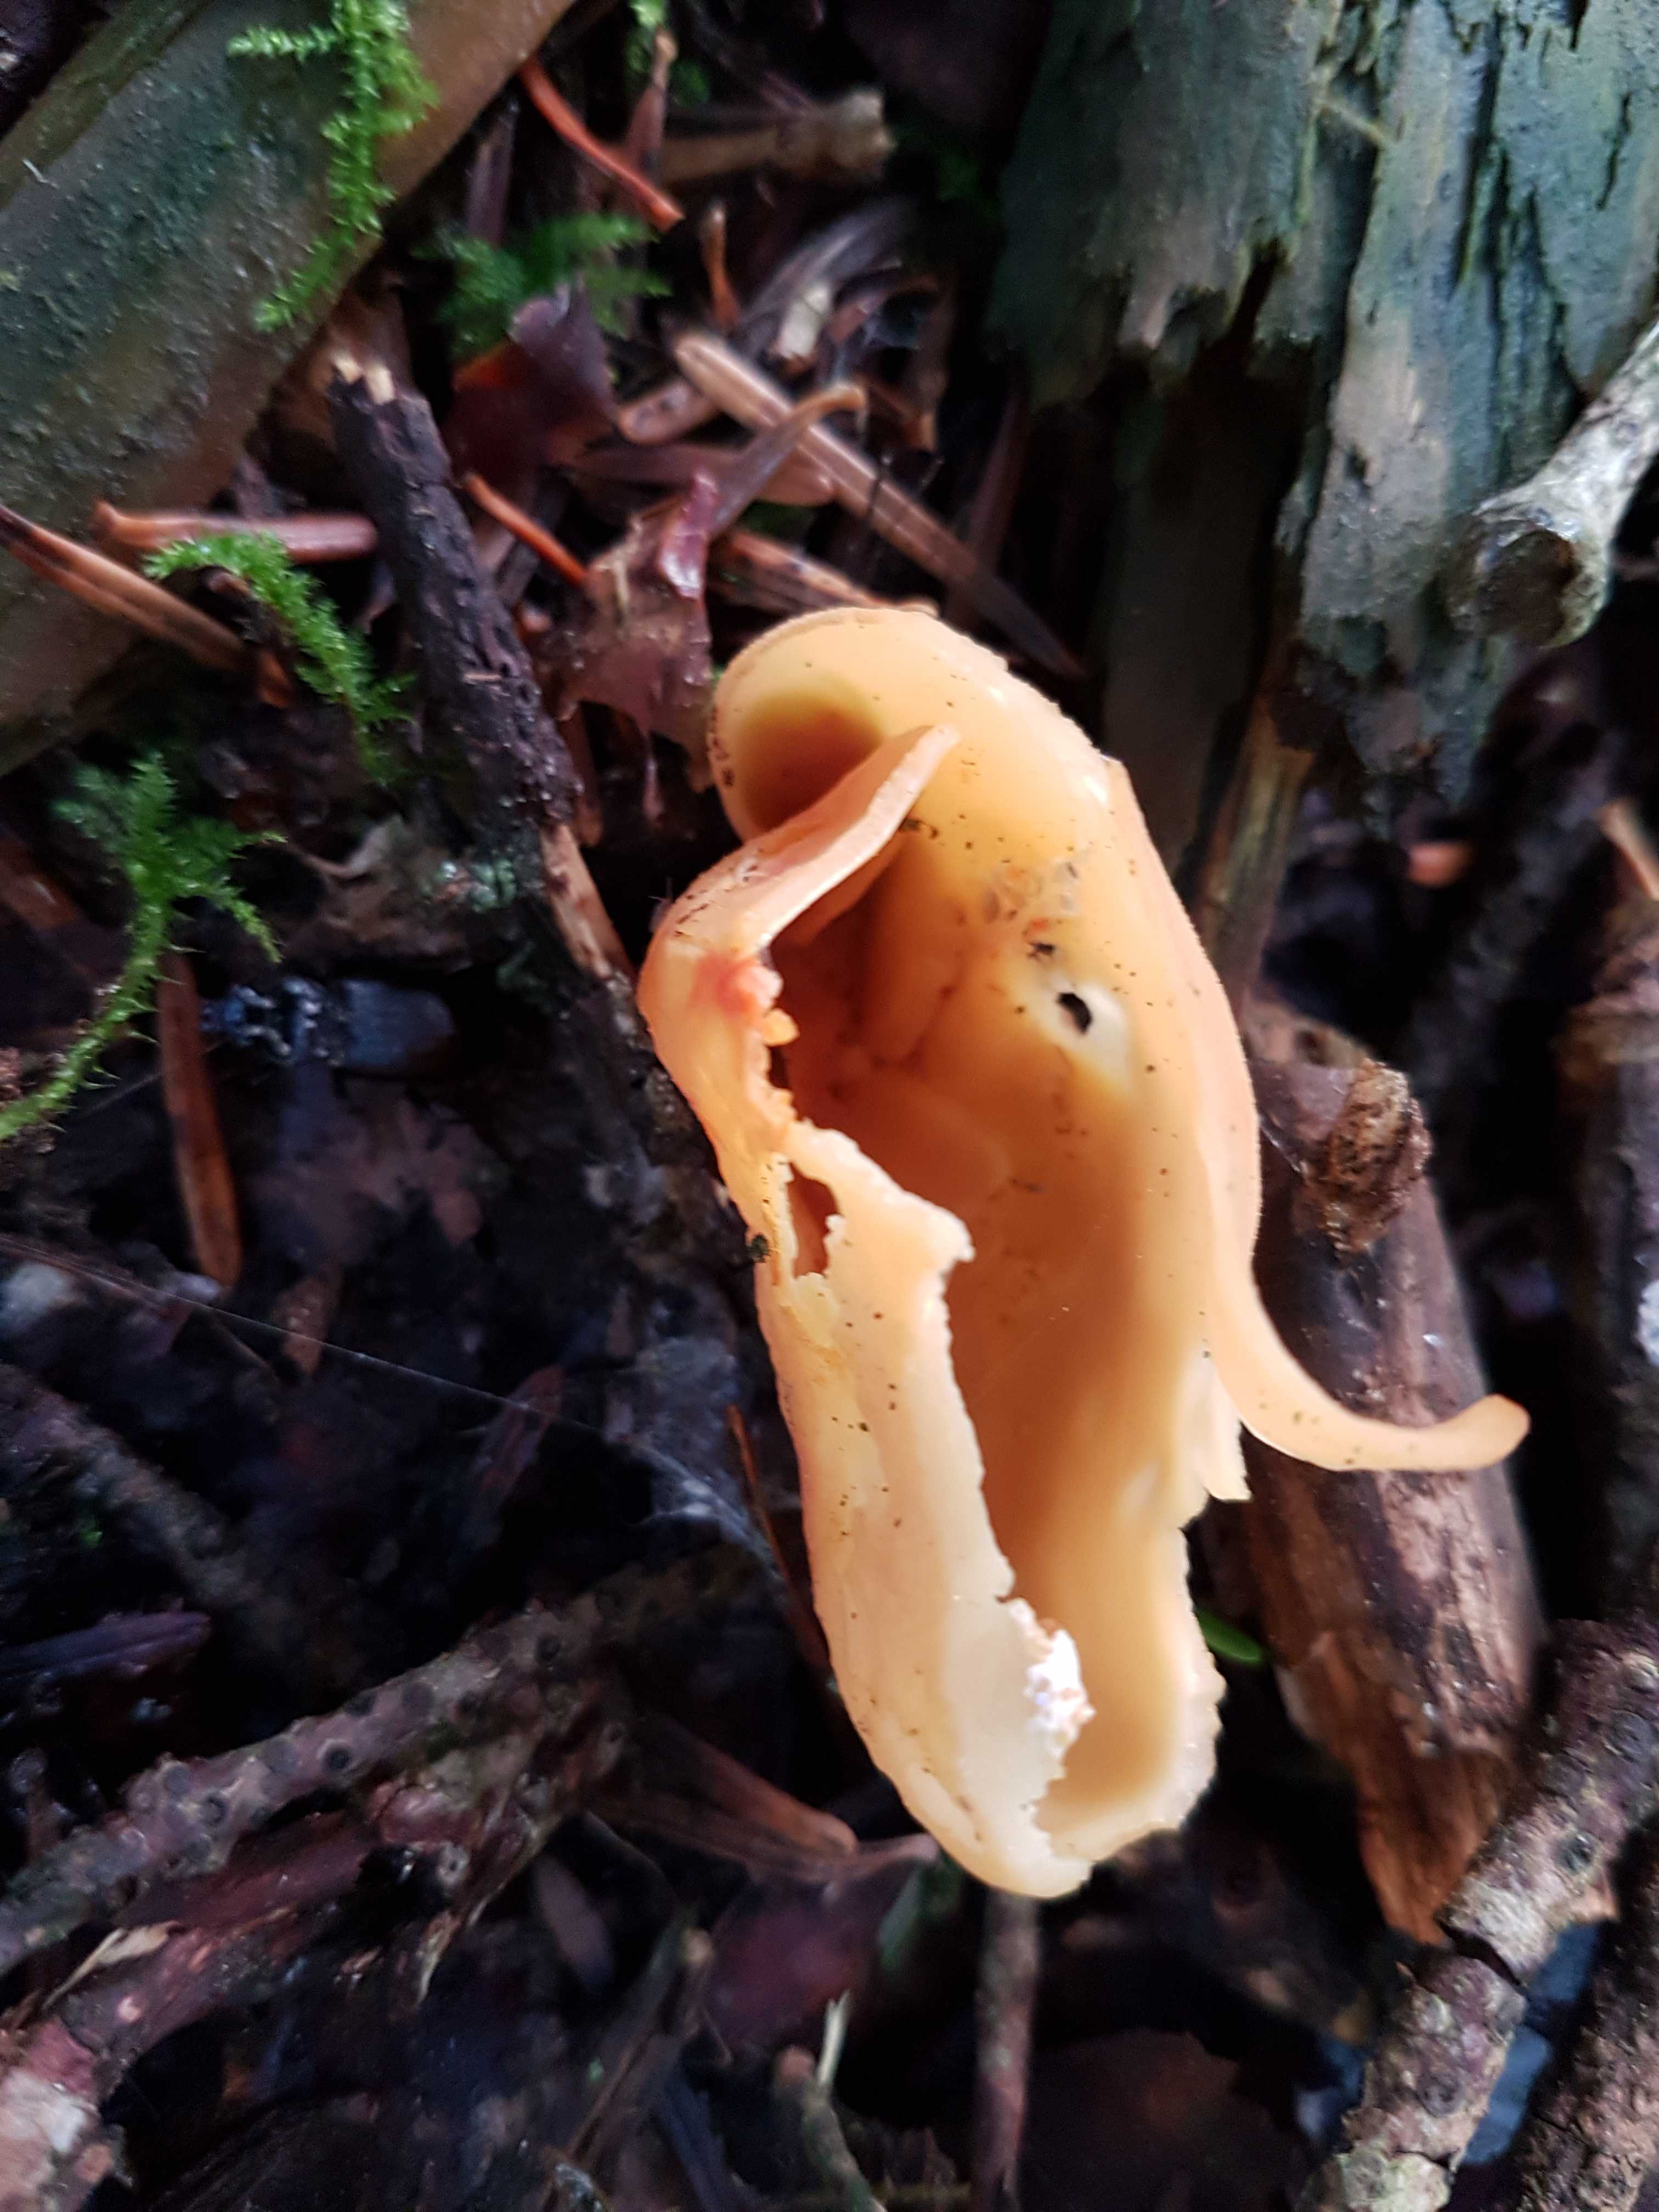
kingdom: Fungi
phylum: Ascomycota
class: Pezizomycetes
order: Pezizales
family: Otideaceae
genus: Otidea
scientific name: Otidea onotica
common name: æsel-ørebæger
